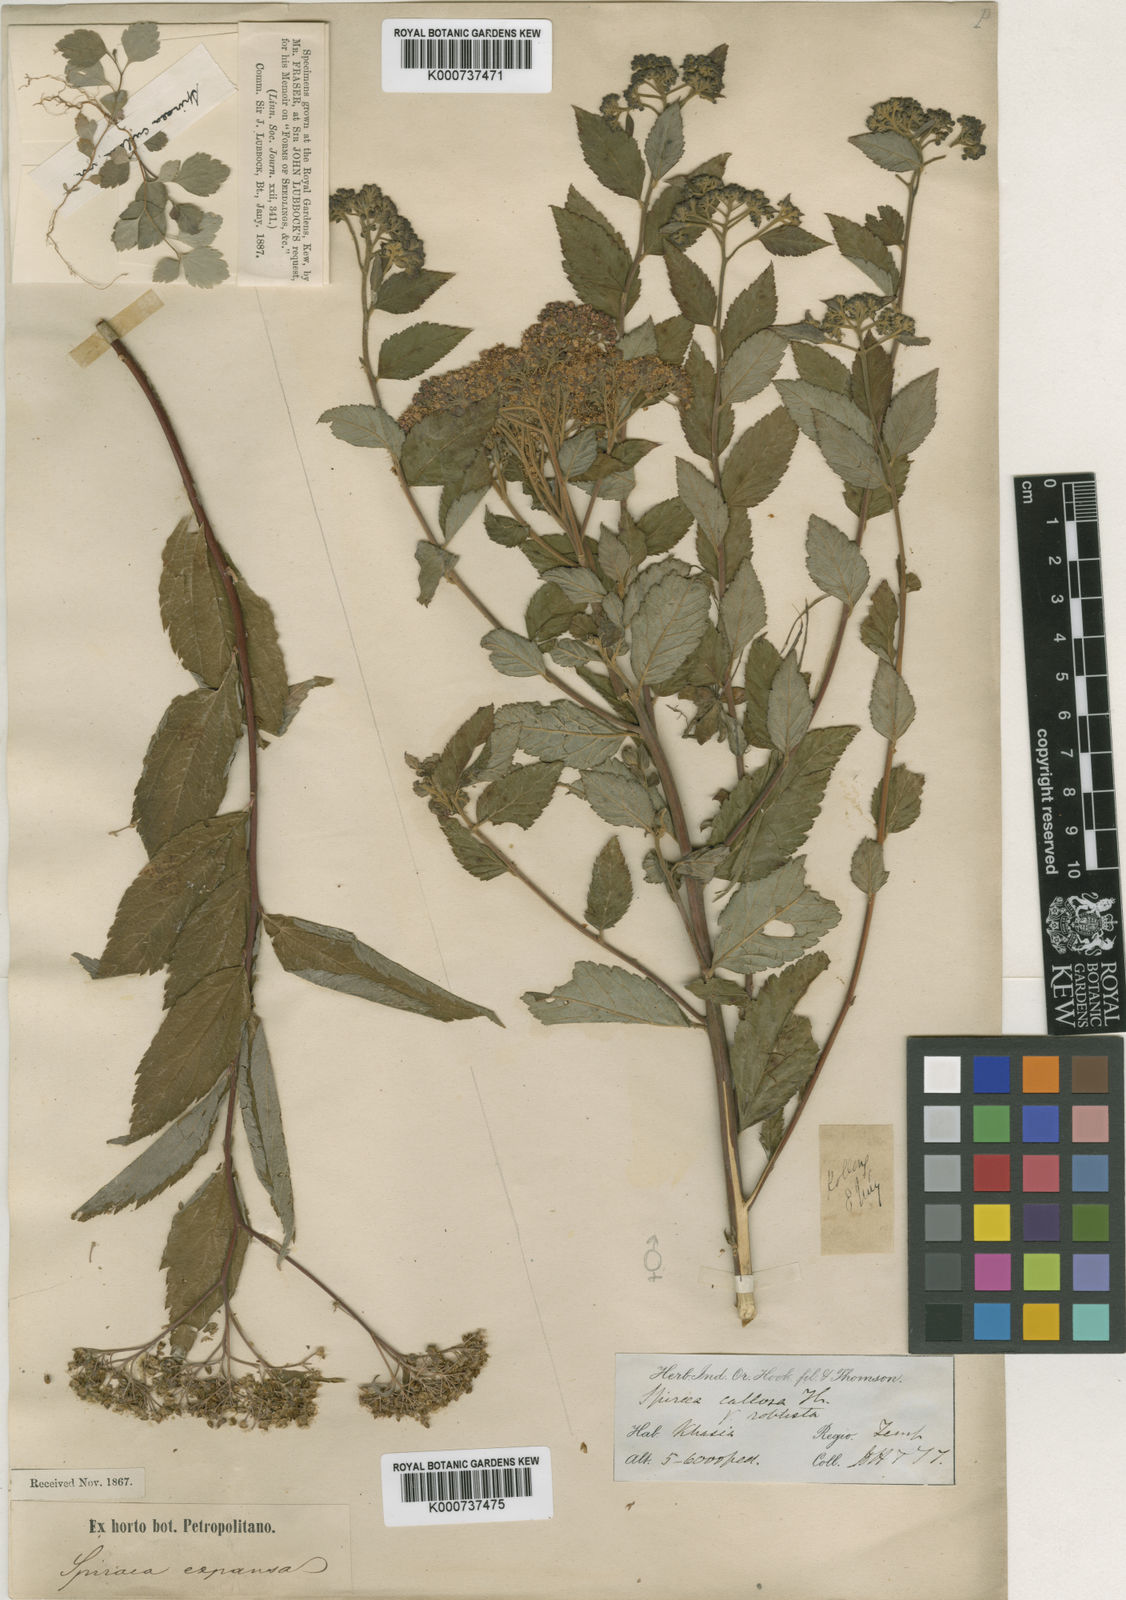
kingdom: Plantae
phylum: Tracheophyta
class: Magnoliopsida
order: Rosales
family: Rosaceae
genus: Spiraea
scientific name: Spiraea japonica
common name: Japanese spiraea
